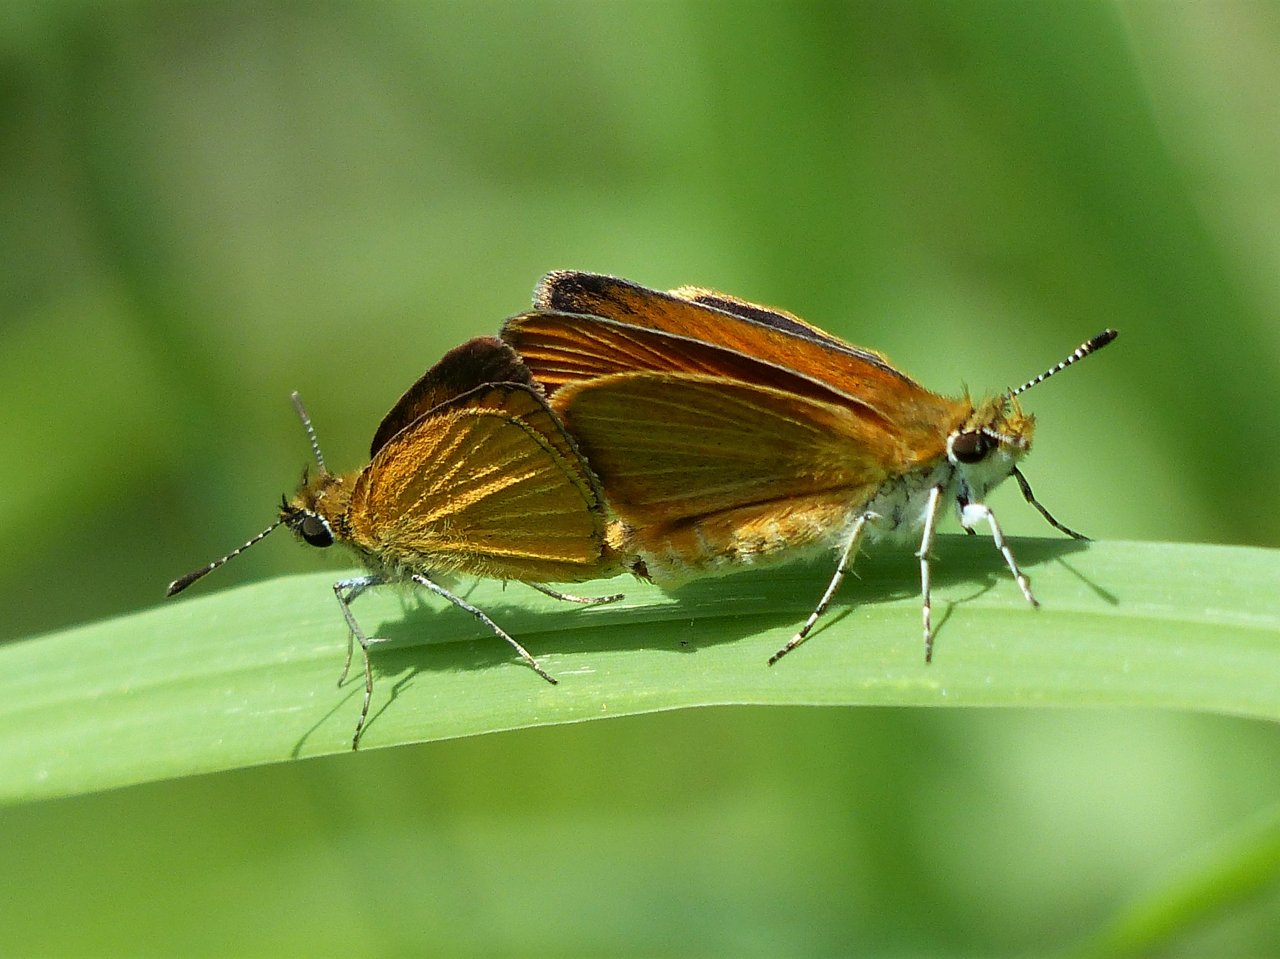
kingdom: Animalia
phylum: Arthropoda
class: Insecta
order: Lepidoptera
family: Hesperiidae
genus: Ancyloxypha
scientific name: Ancyloxypha numitor
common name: Least Skipper
